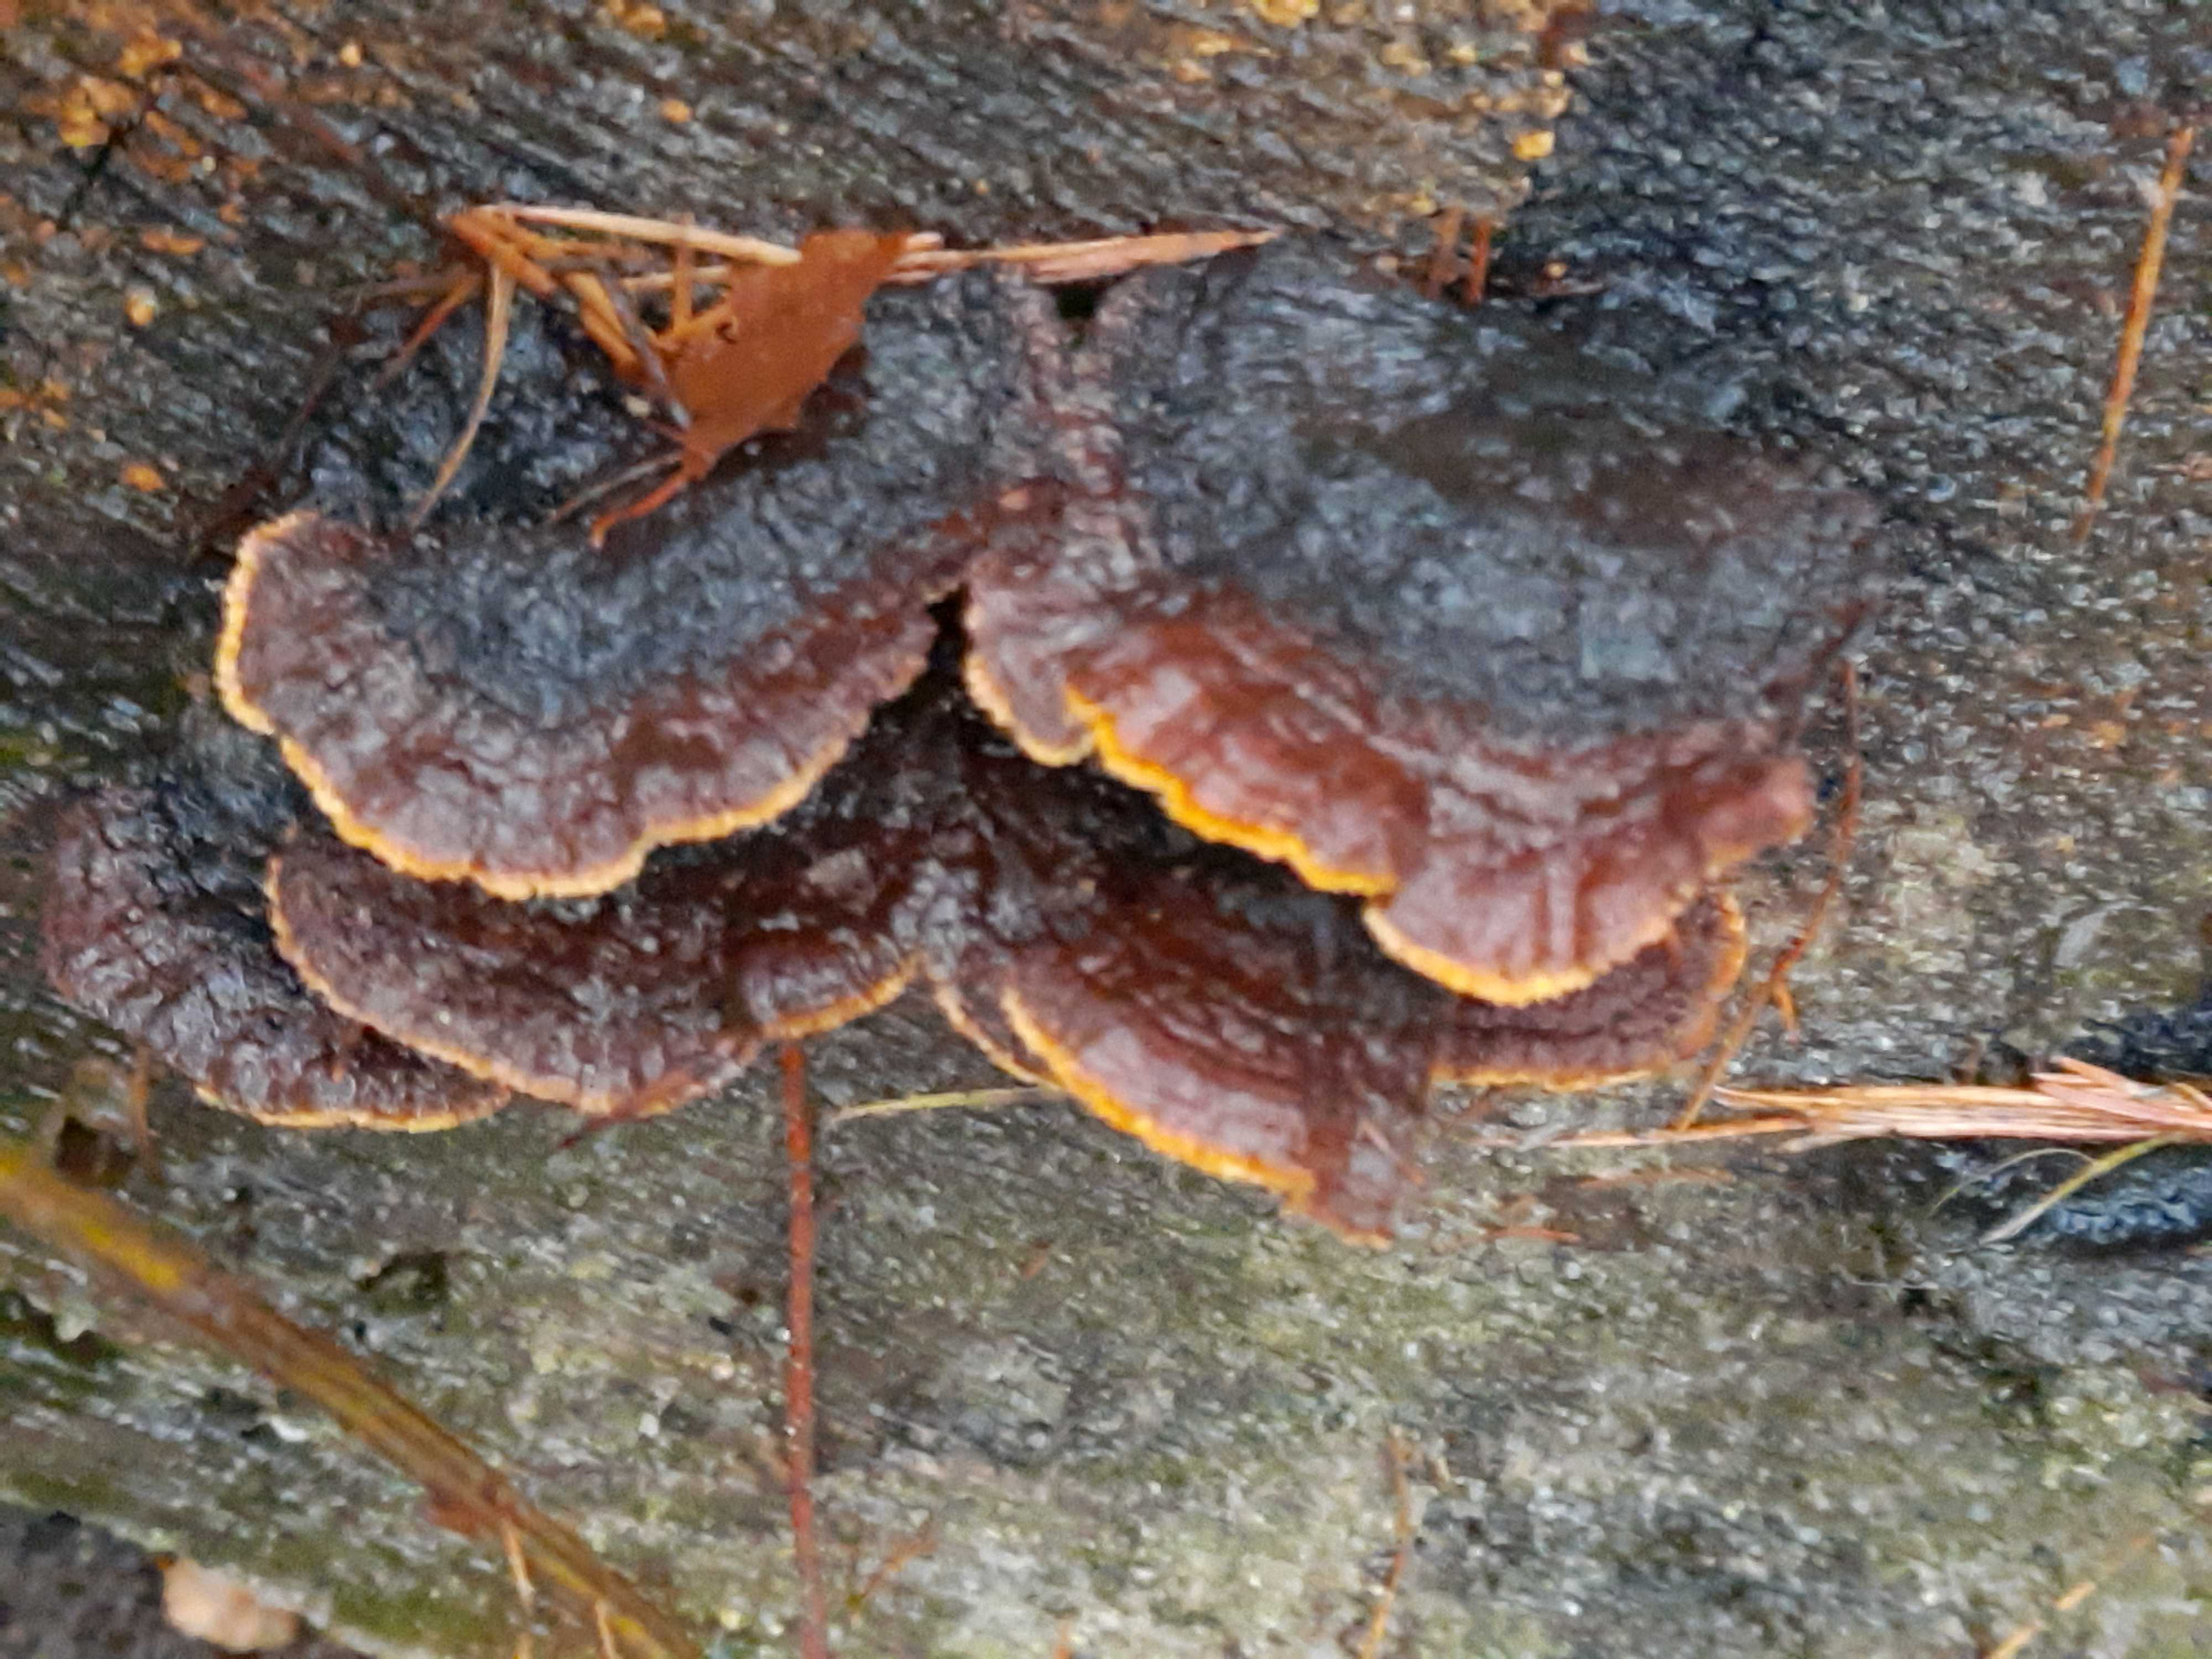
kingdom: Fungi
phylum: Basidiomycota
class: Agaricomycetes
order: Gloeophyllales
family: Gloeophyllaceae
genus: Gloeophyllum
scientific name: Gloeophyllum sepiarium
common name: fyrre-korkhat
